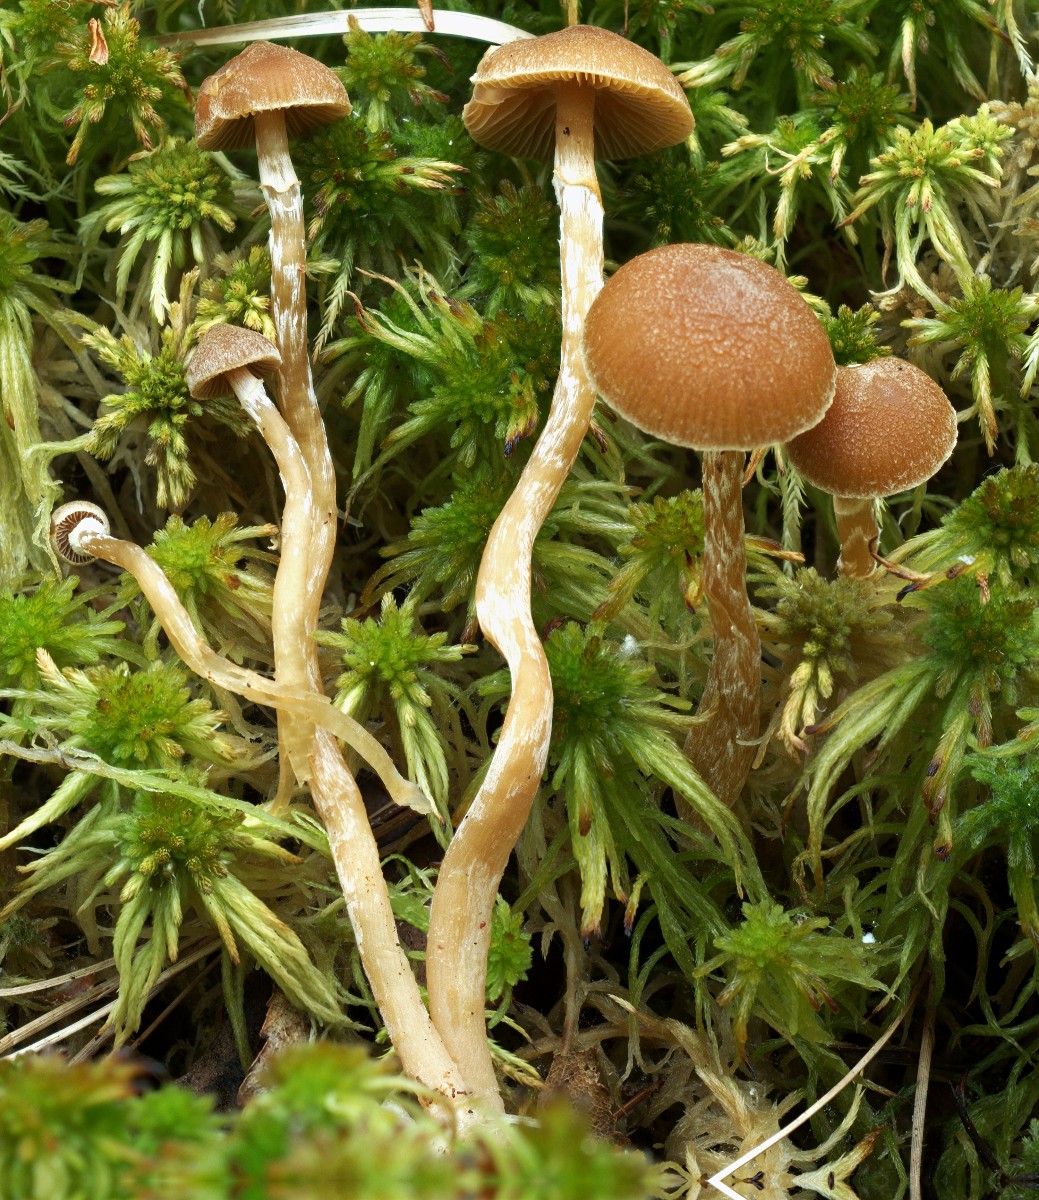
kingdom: Fungi
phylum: Basidiomycota
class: Agaricomycetes
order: Agaricales
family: Hymenogastraceae
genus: Galerina
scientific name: Galerina paludosa
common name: mose-hjelmhat
